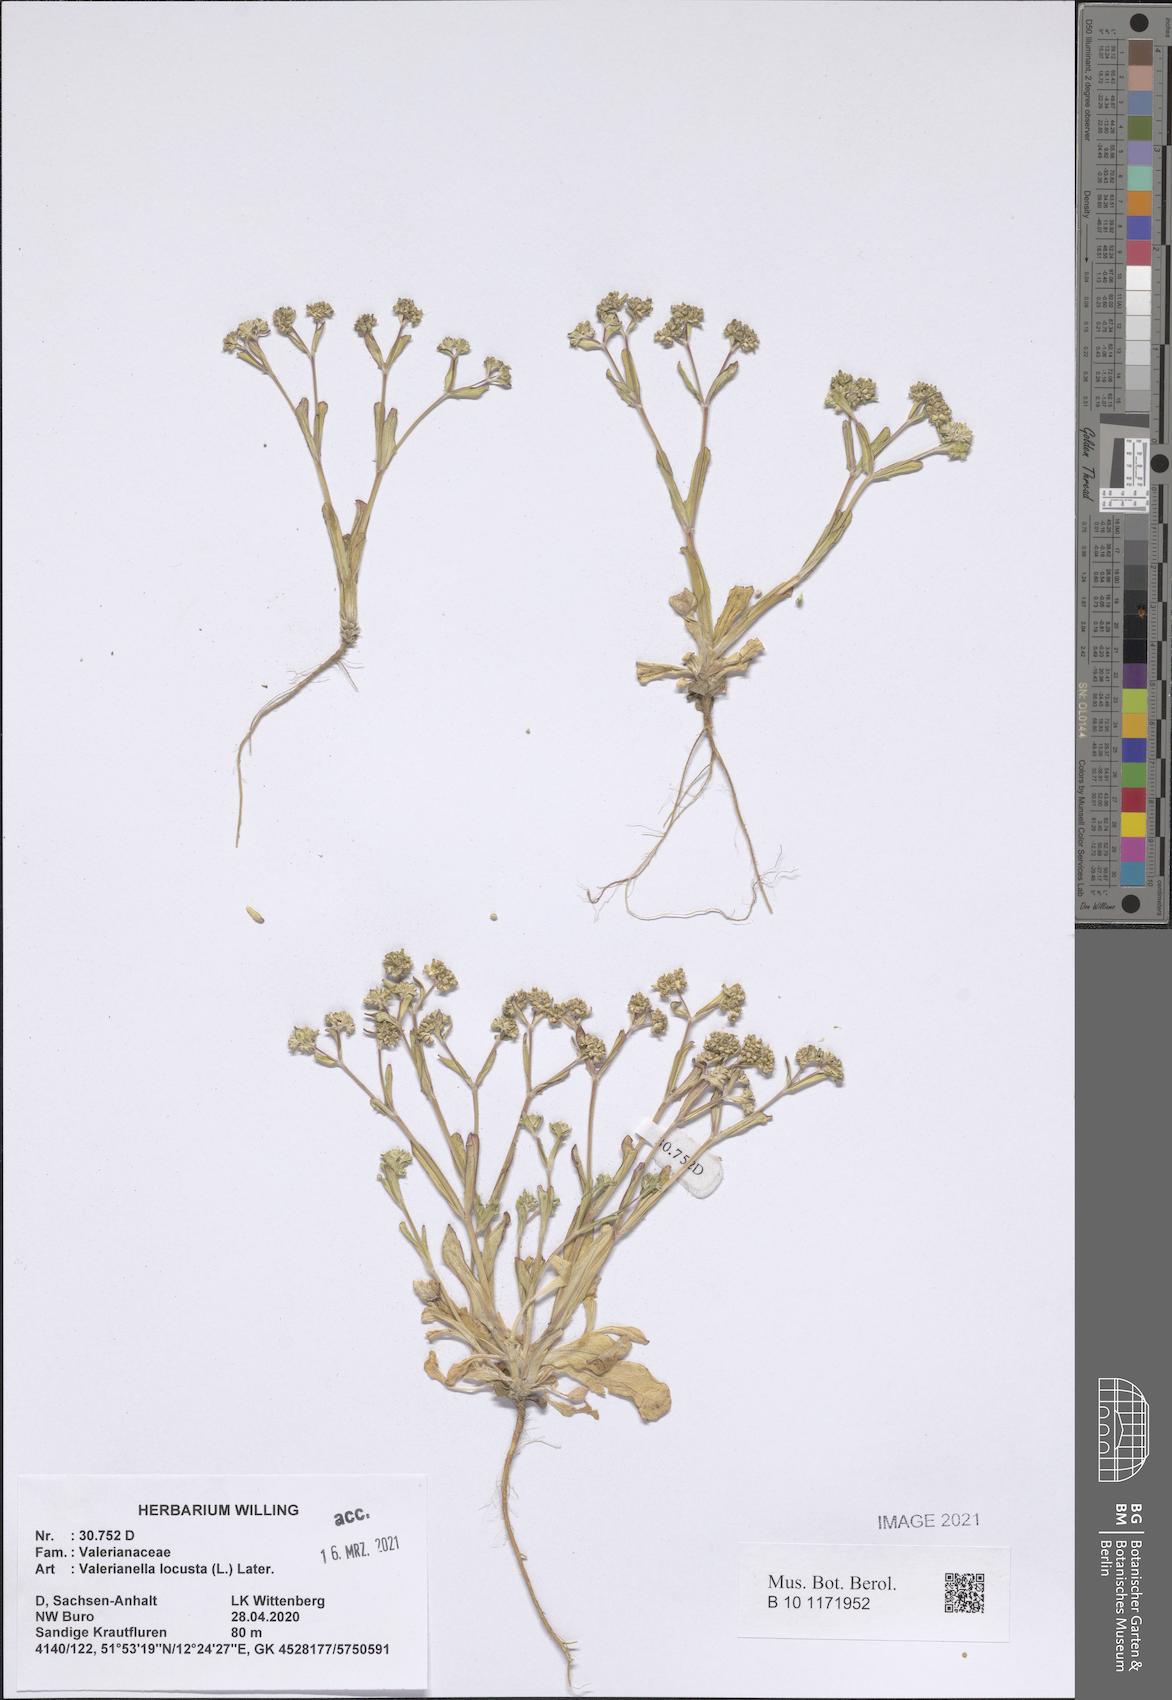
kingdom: Plantae
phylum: Tracheophyta
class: Magnoliopsida
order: Dipsacales
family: Caprifoliaceae
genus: Valerianella
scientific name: Valerianella locusta
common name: Common cornsalad
